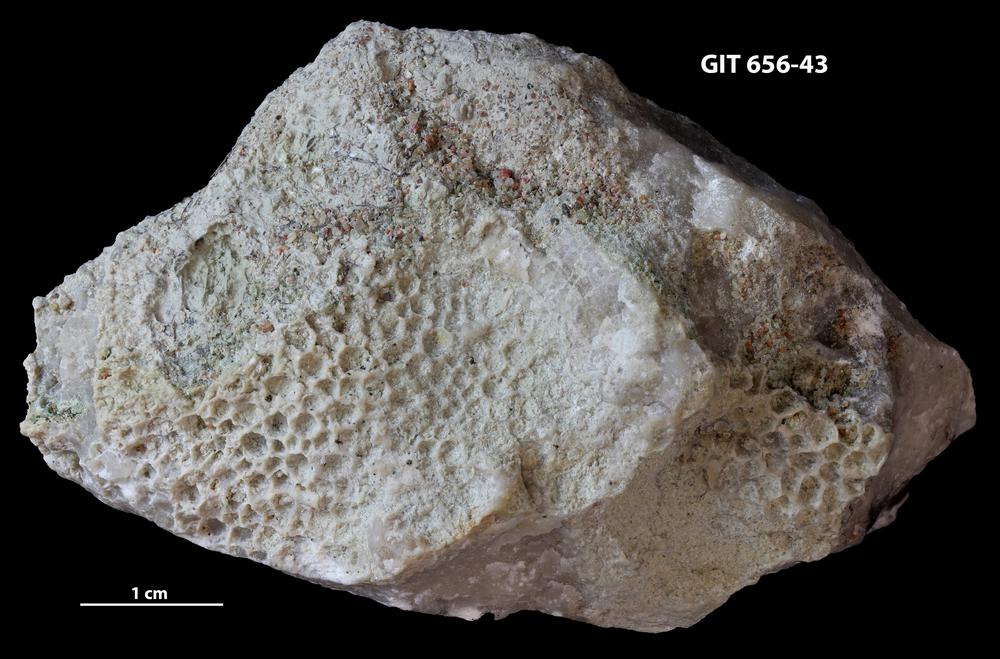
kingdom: Animalia
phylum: Cnidaria
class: Anthozoa
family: Favositidae
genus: Favosites
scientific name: Favosites
